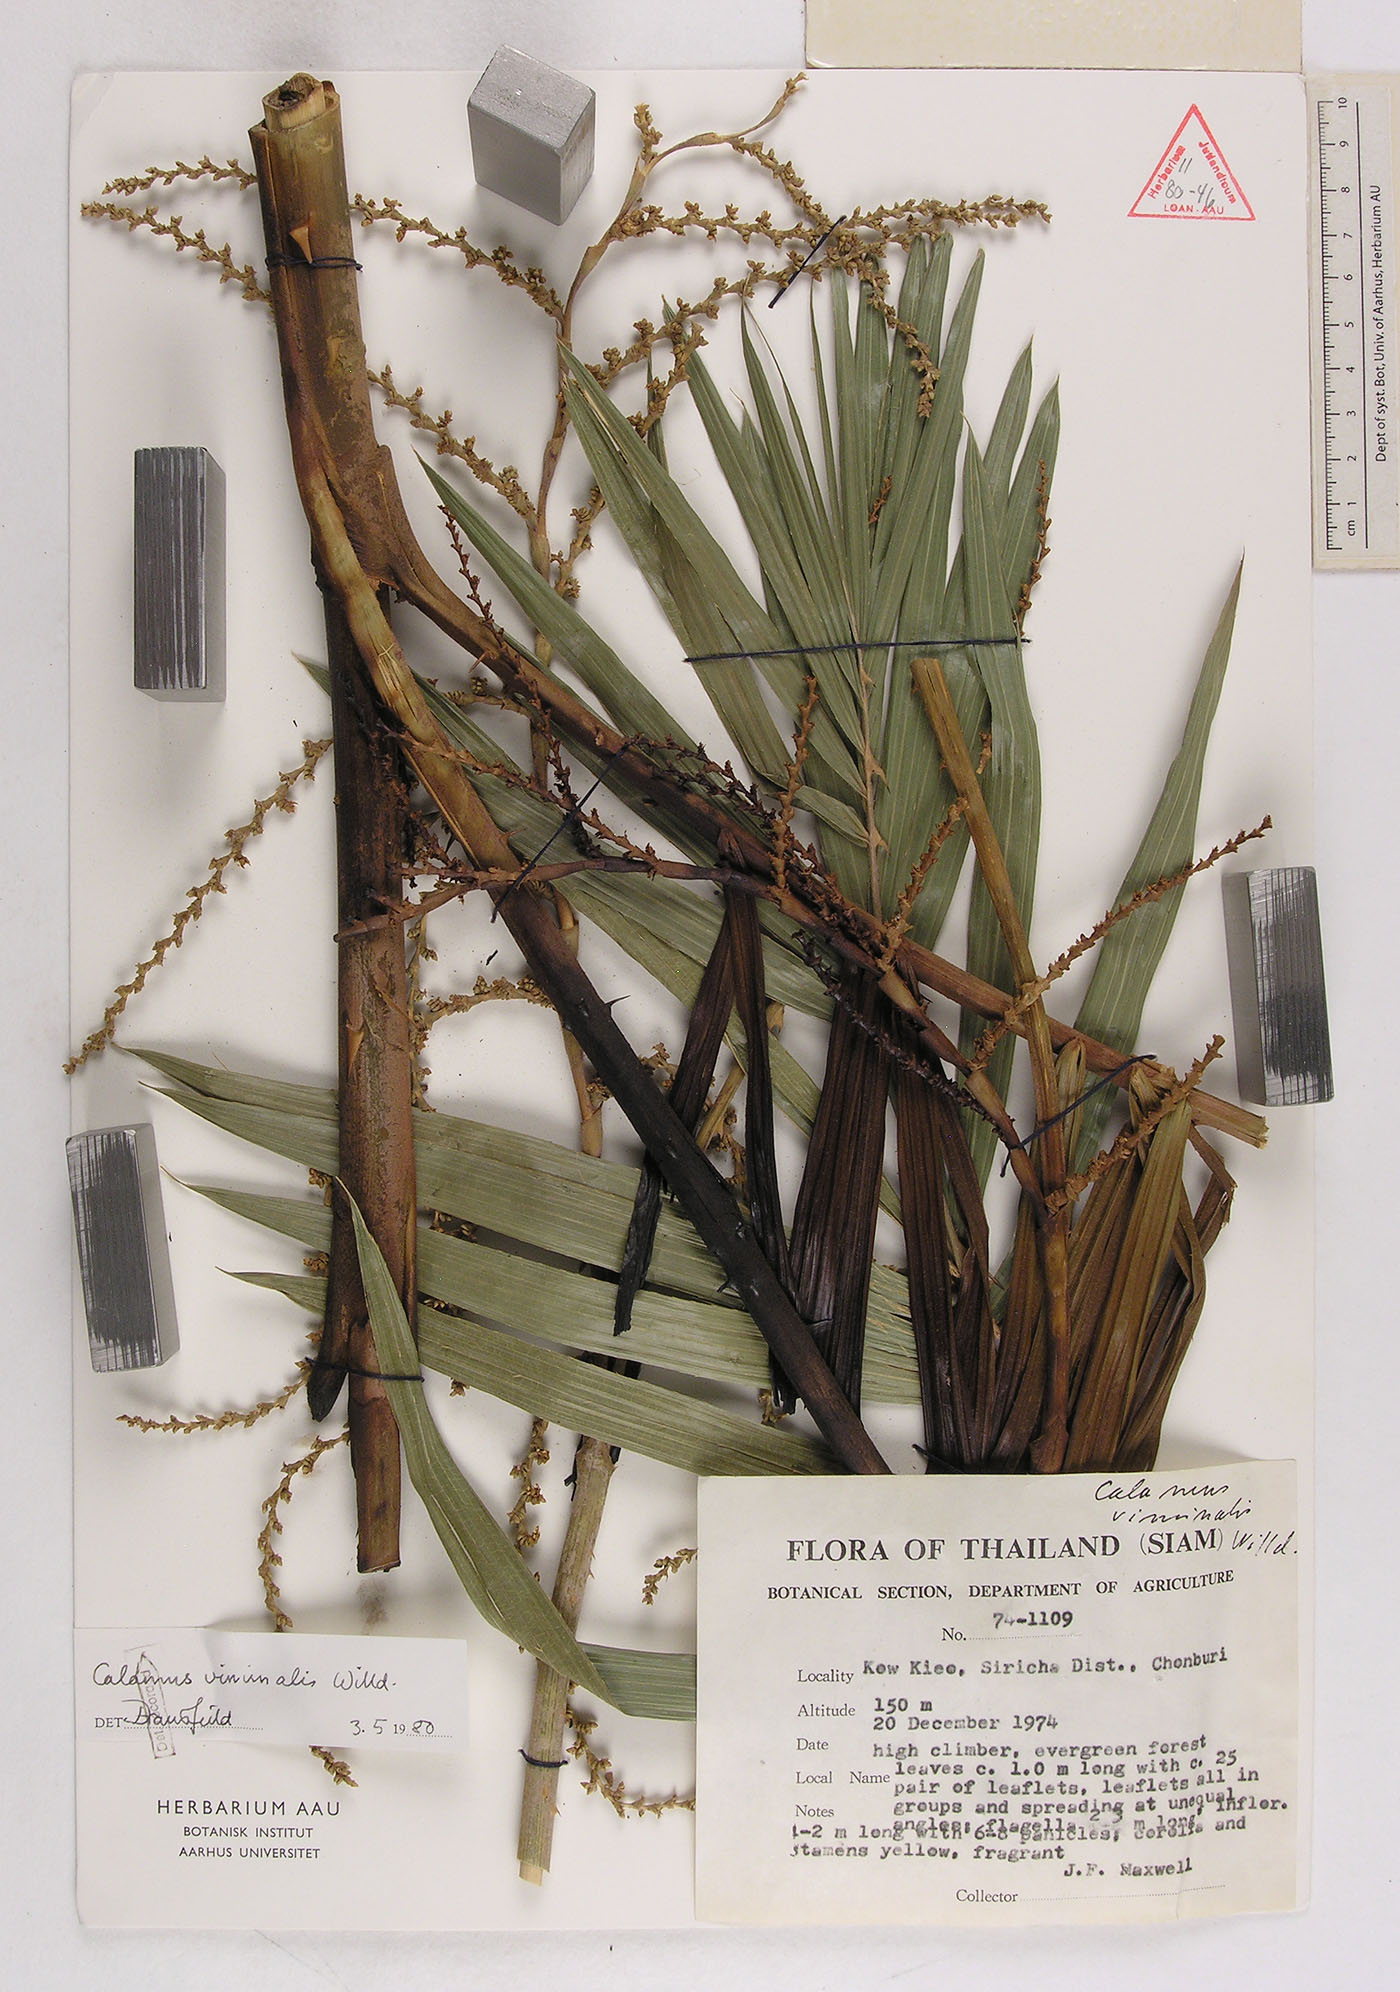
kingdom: Plantae
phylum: Tracheophyta
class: Liliopsida
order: Arecales
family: Arecaceae
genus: Calamus
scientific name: Calamus viminalis
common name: Osier-like rattan palm
